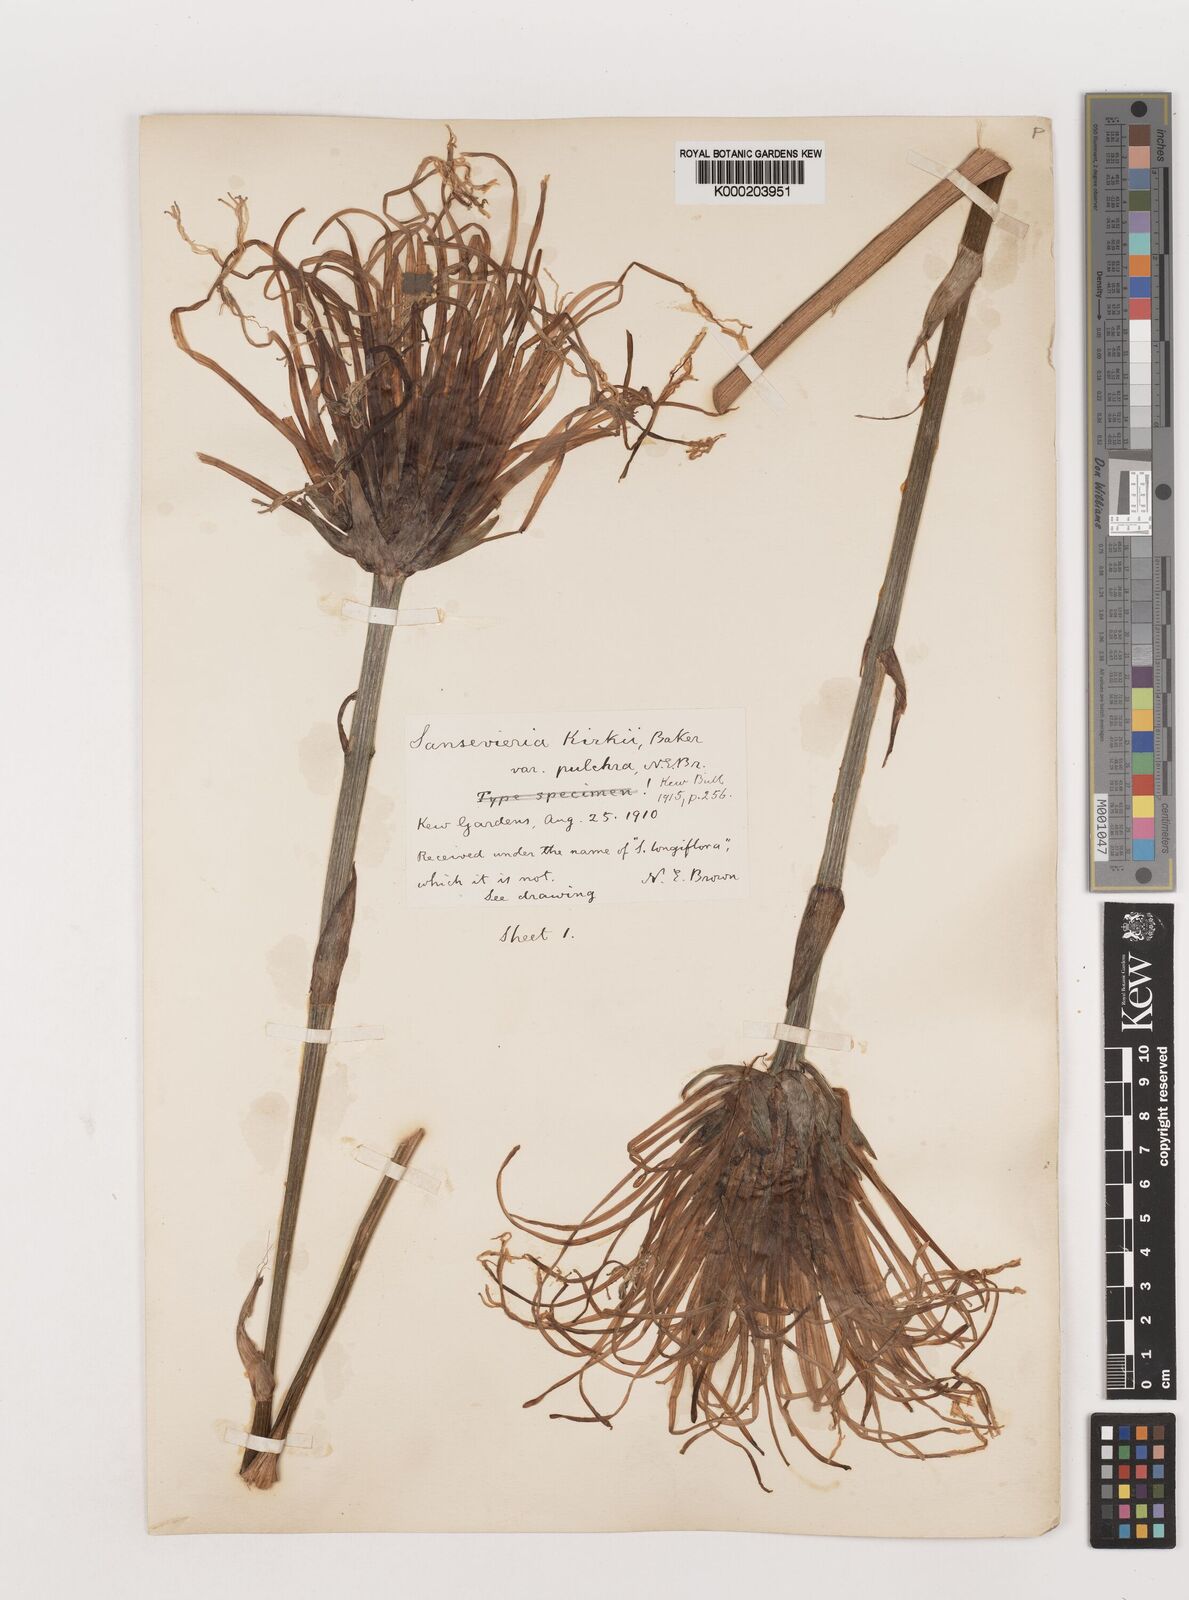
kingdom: Plantae
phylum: Tracheophyta
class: Liliopsida
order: Asparagales
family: Asparagaceae
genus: Dracaena
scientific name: Dracaena pethera
